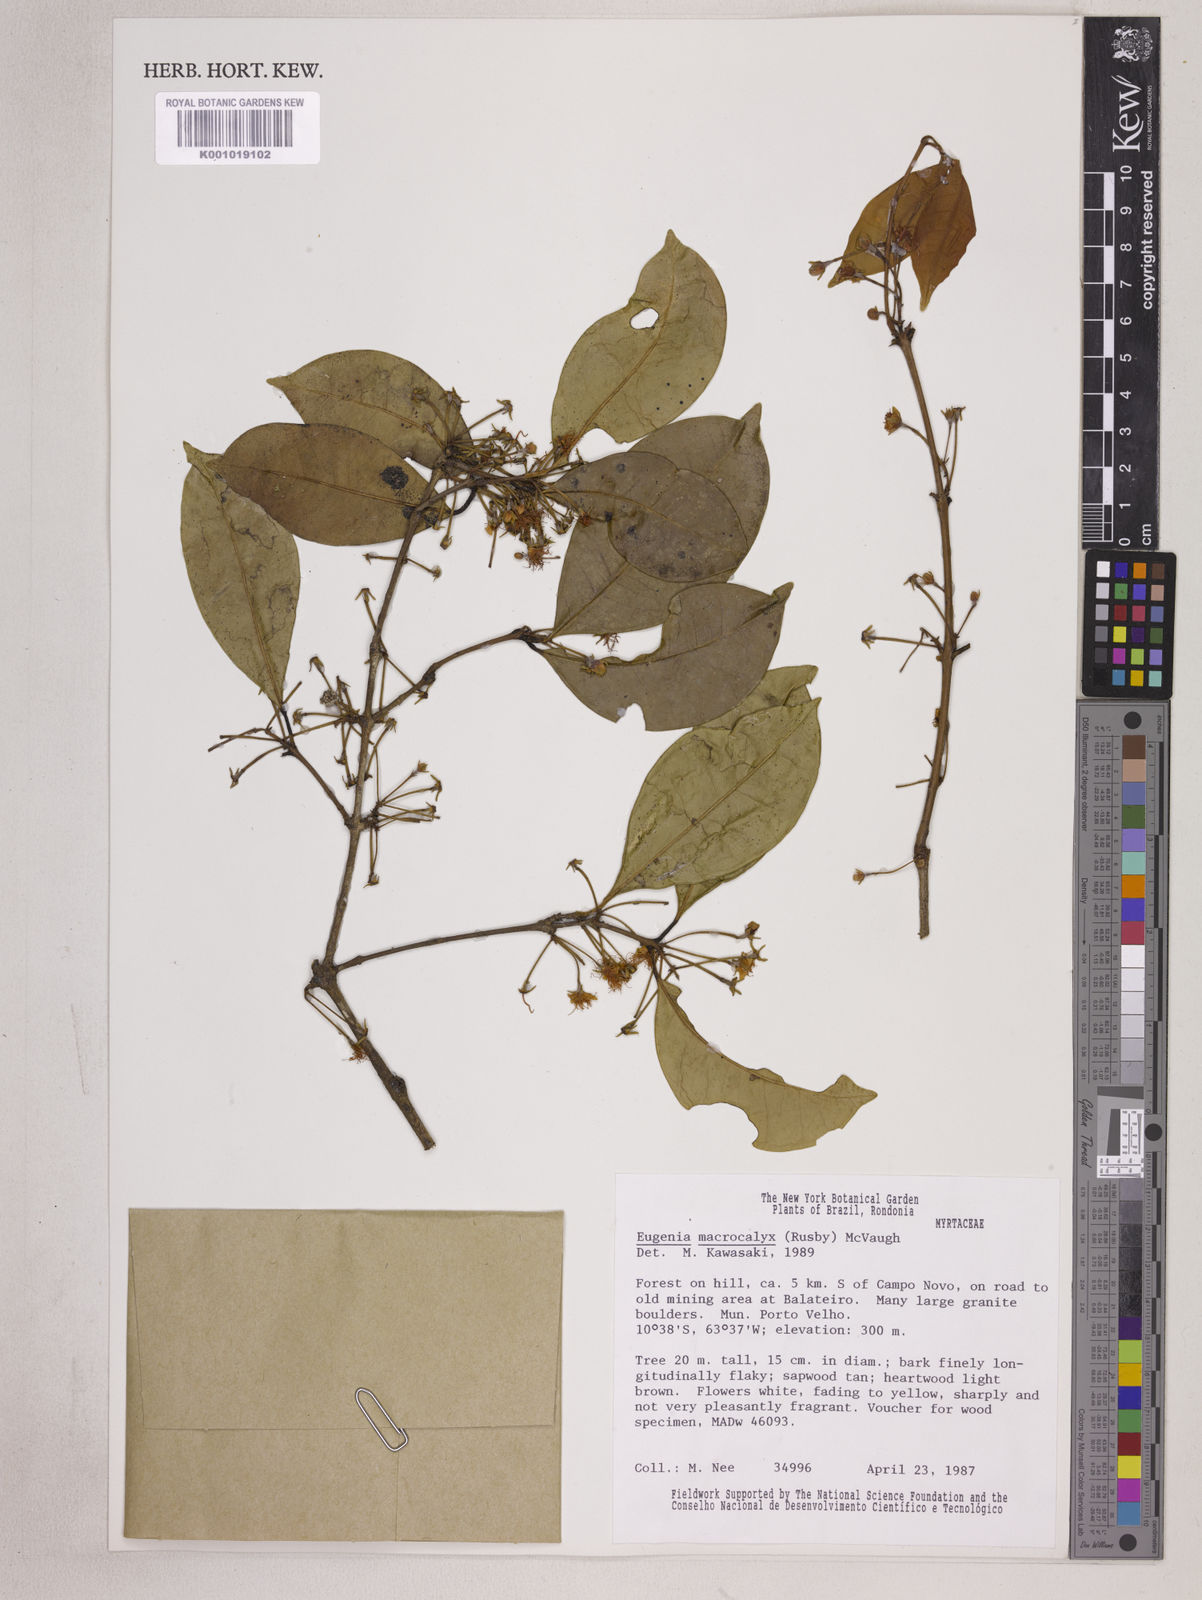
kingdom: Plantae
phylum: Tracheophyta
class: Magnoliopsida
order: Myrtales
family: Myrtaceae
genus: Eugenia
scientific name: Eugenia wentii
